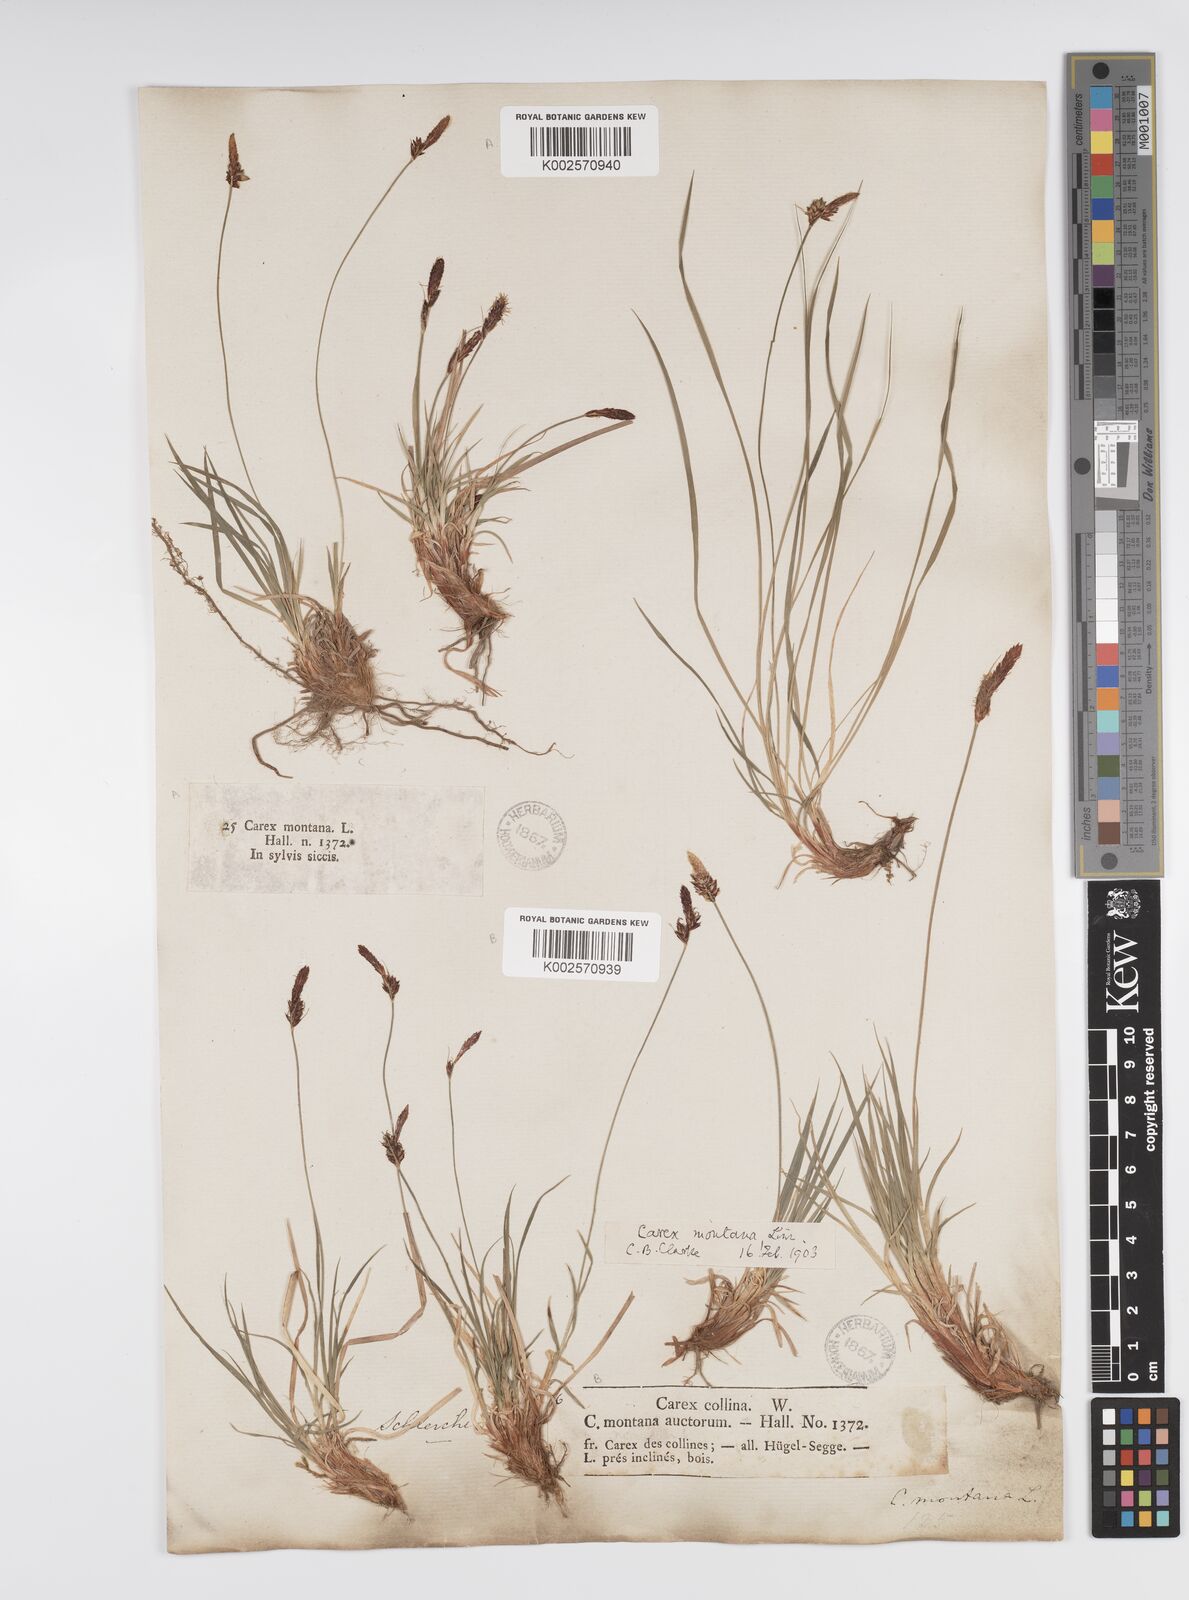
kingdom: Plantae
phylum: Tracheophyta
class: Liliopsida
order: Poales
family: Cyperaceae
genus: Carex
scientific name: Carex montana
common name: Soft-leaved sedge
